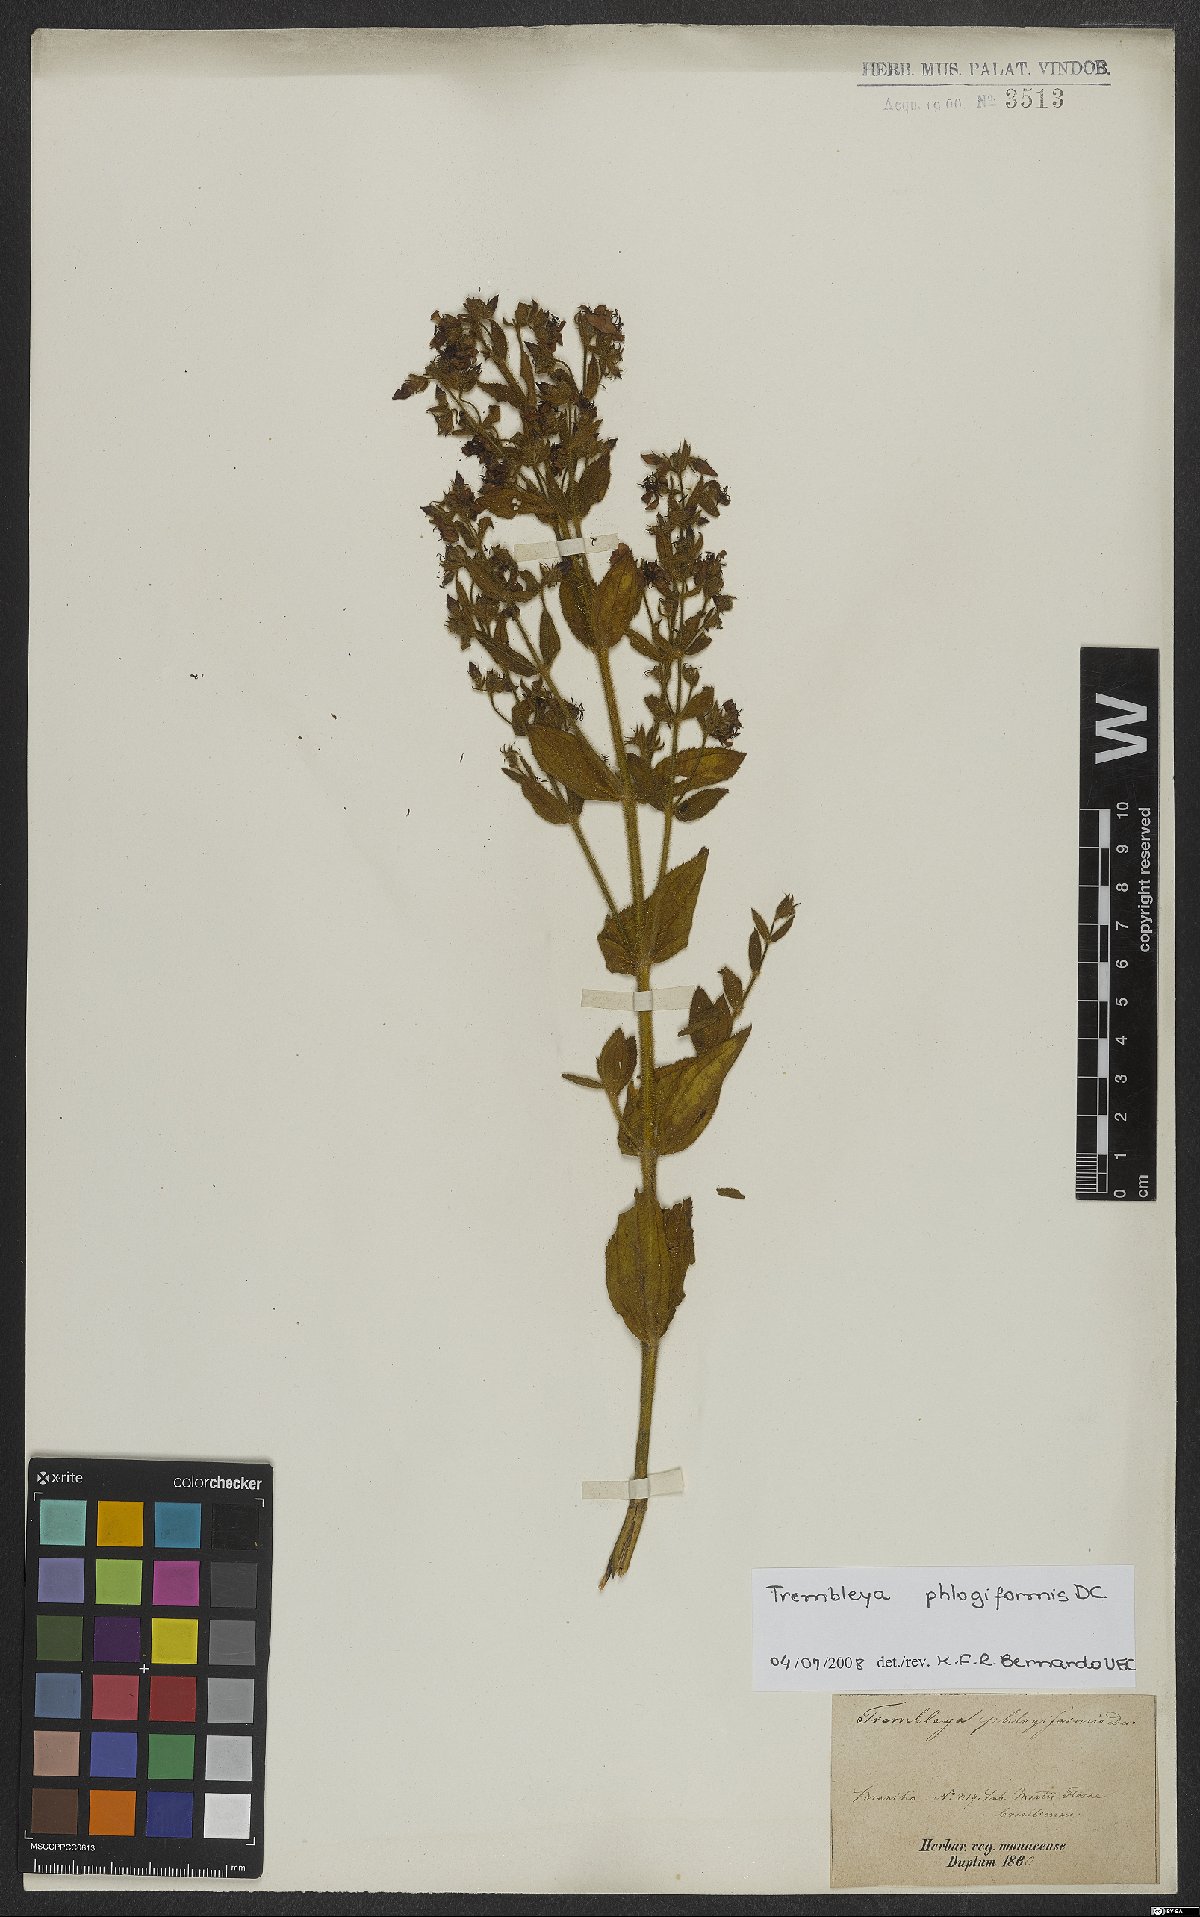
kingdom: Plantae
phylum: Tracheophyta
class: Magnoliopsida
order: Myrtales
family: Melastomataceae
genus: Microlicia
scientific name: Microlicia phlogiformis
